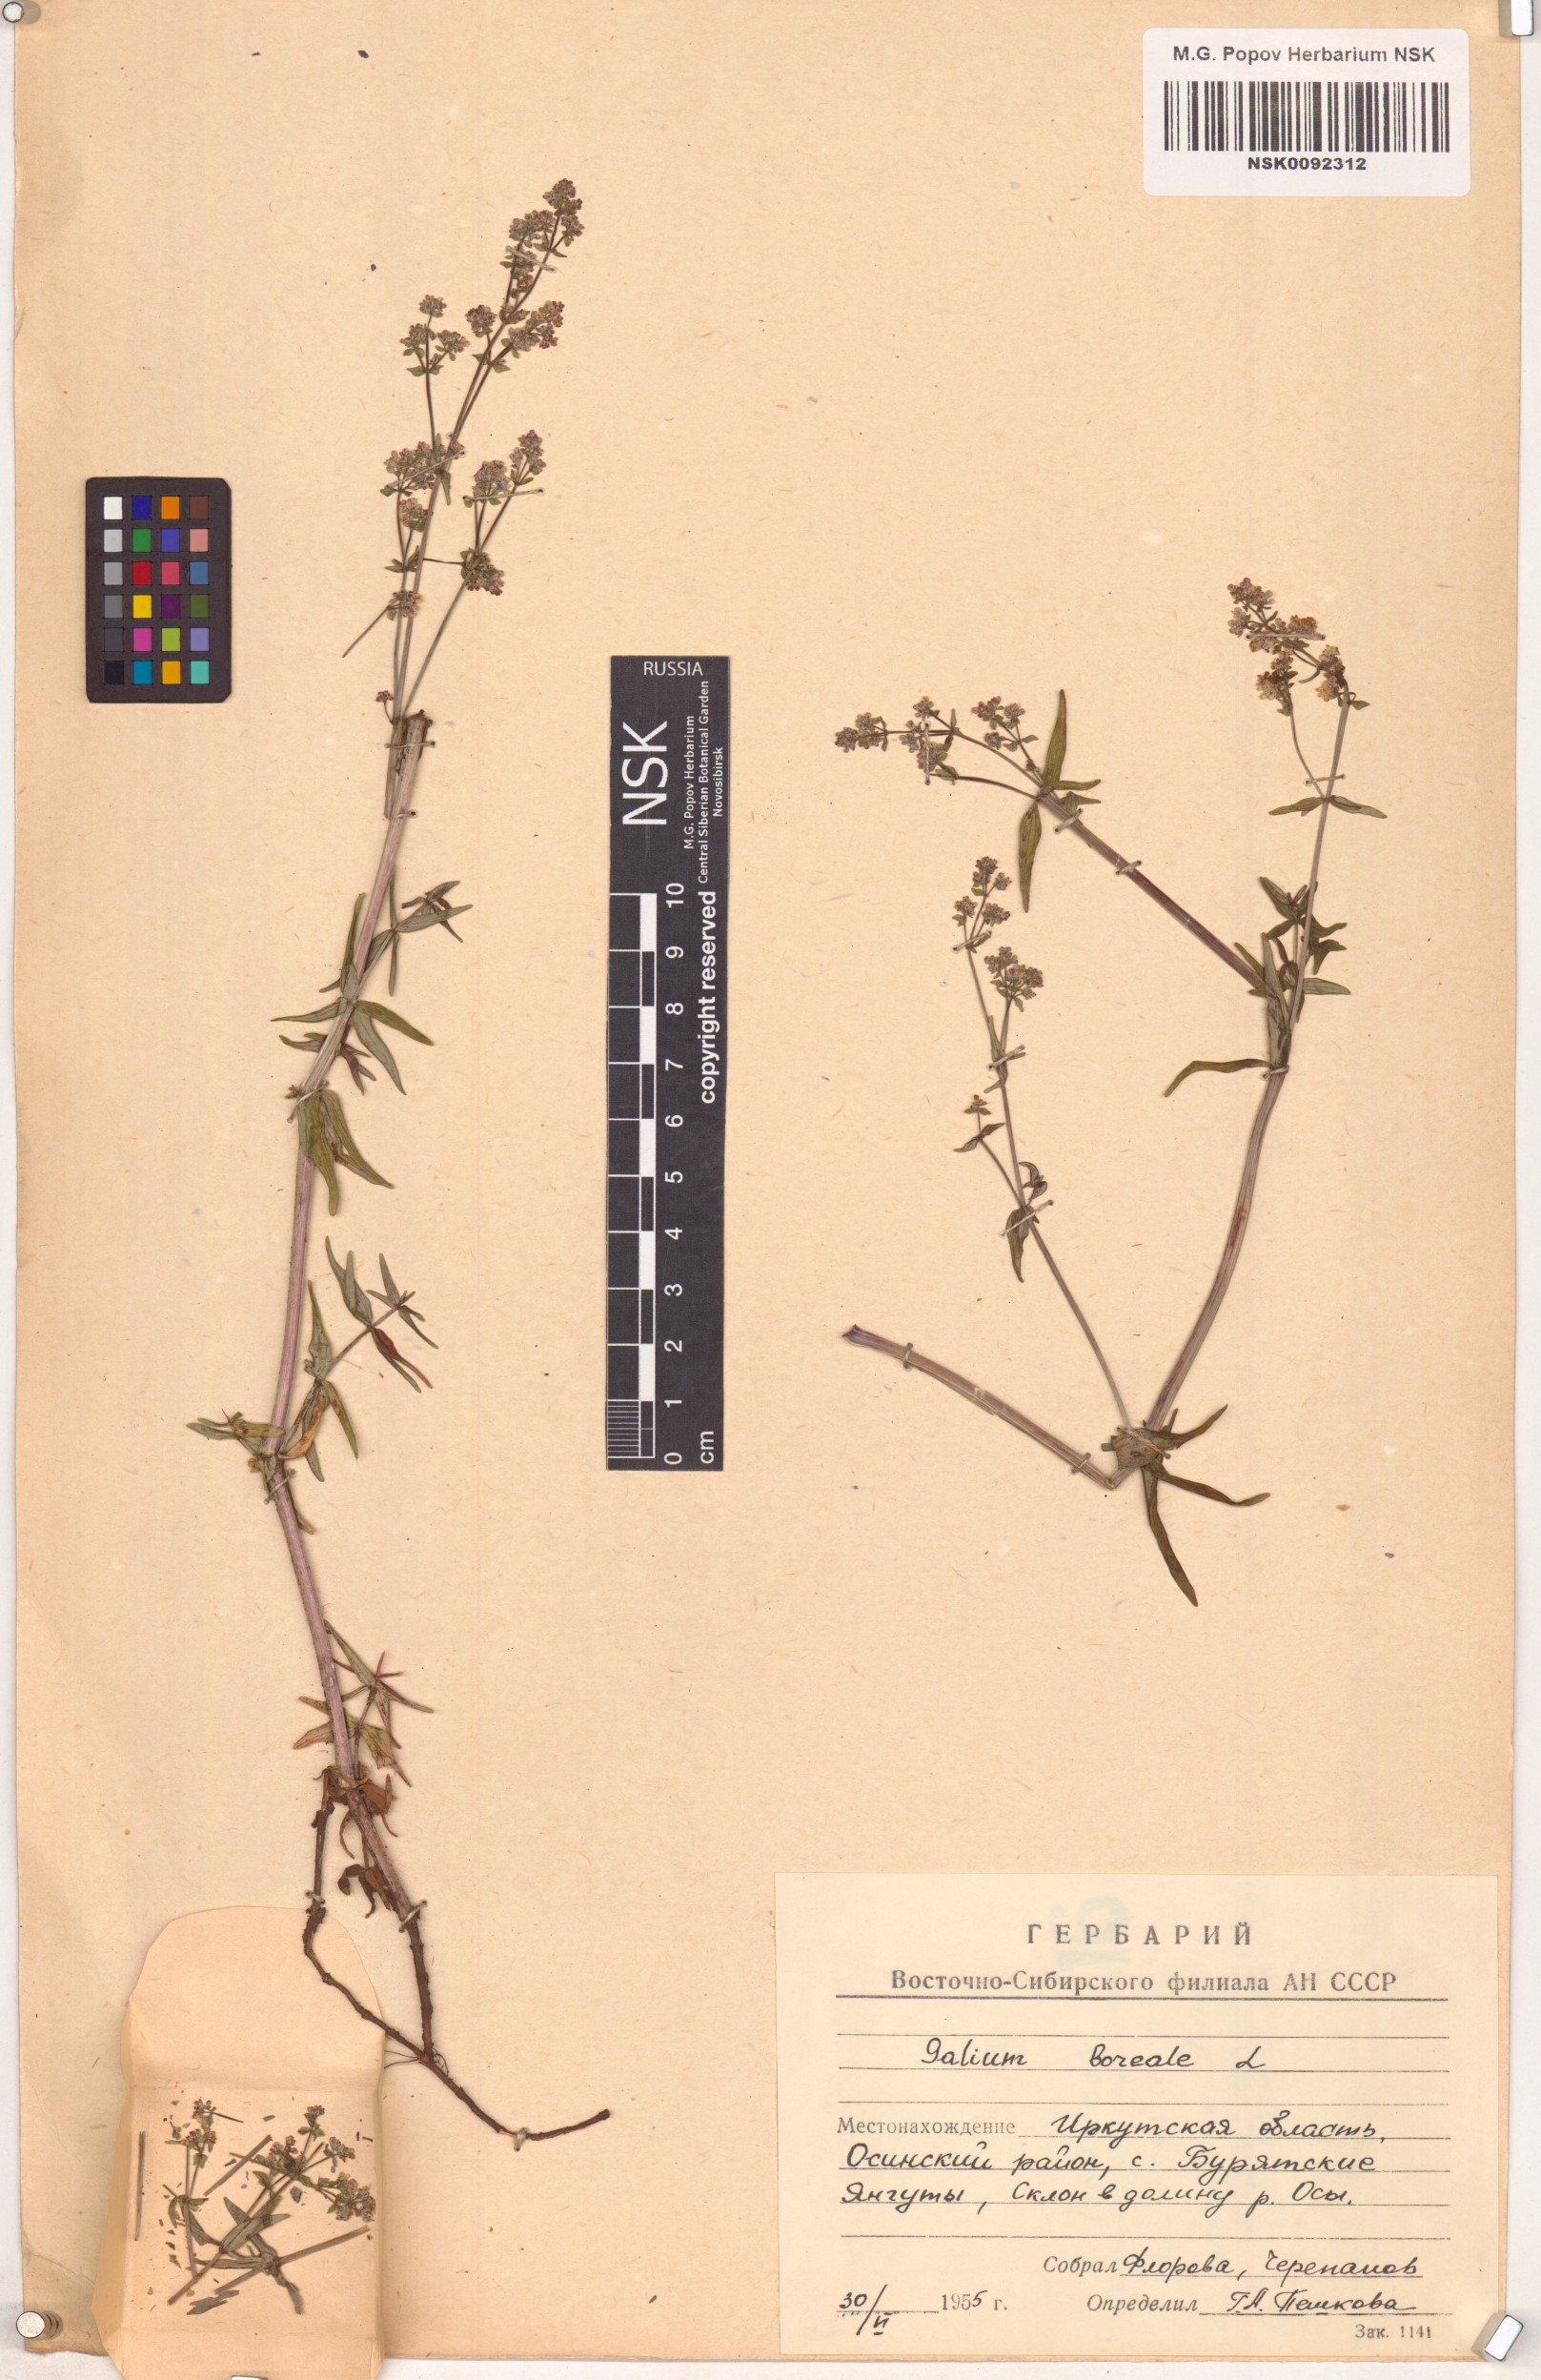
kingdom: Plantae
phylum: Tracheophyta
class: Magnoliopsida
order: Gentianales
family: Rubiaceae
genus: Galium
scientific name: Galium boreale
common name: Northern bedstraw
